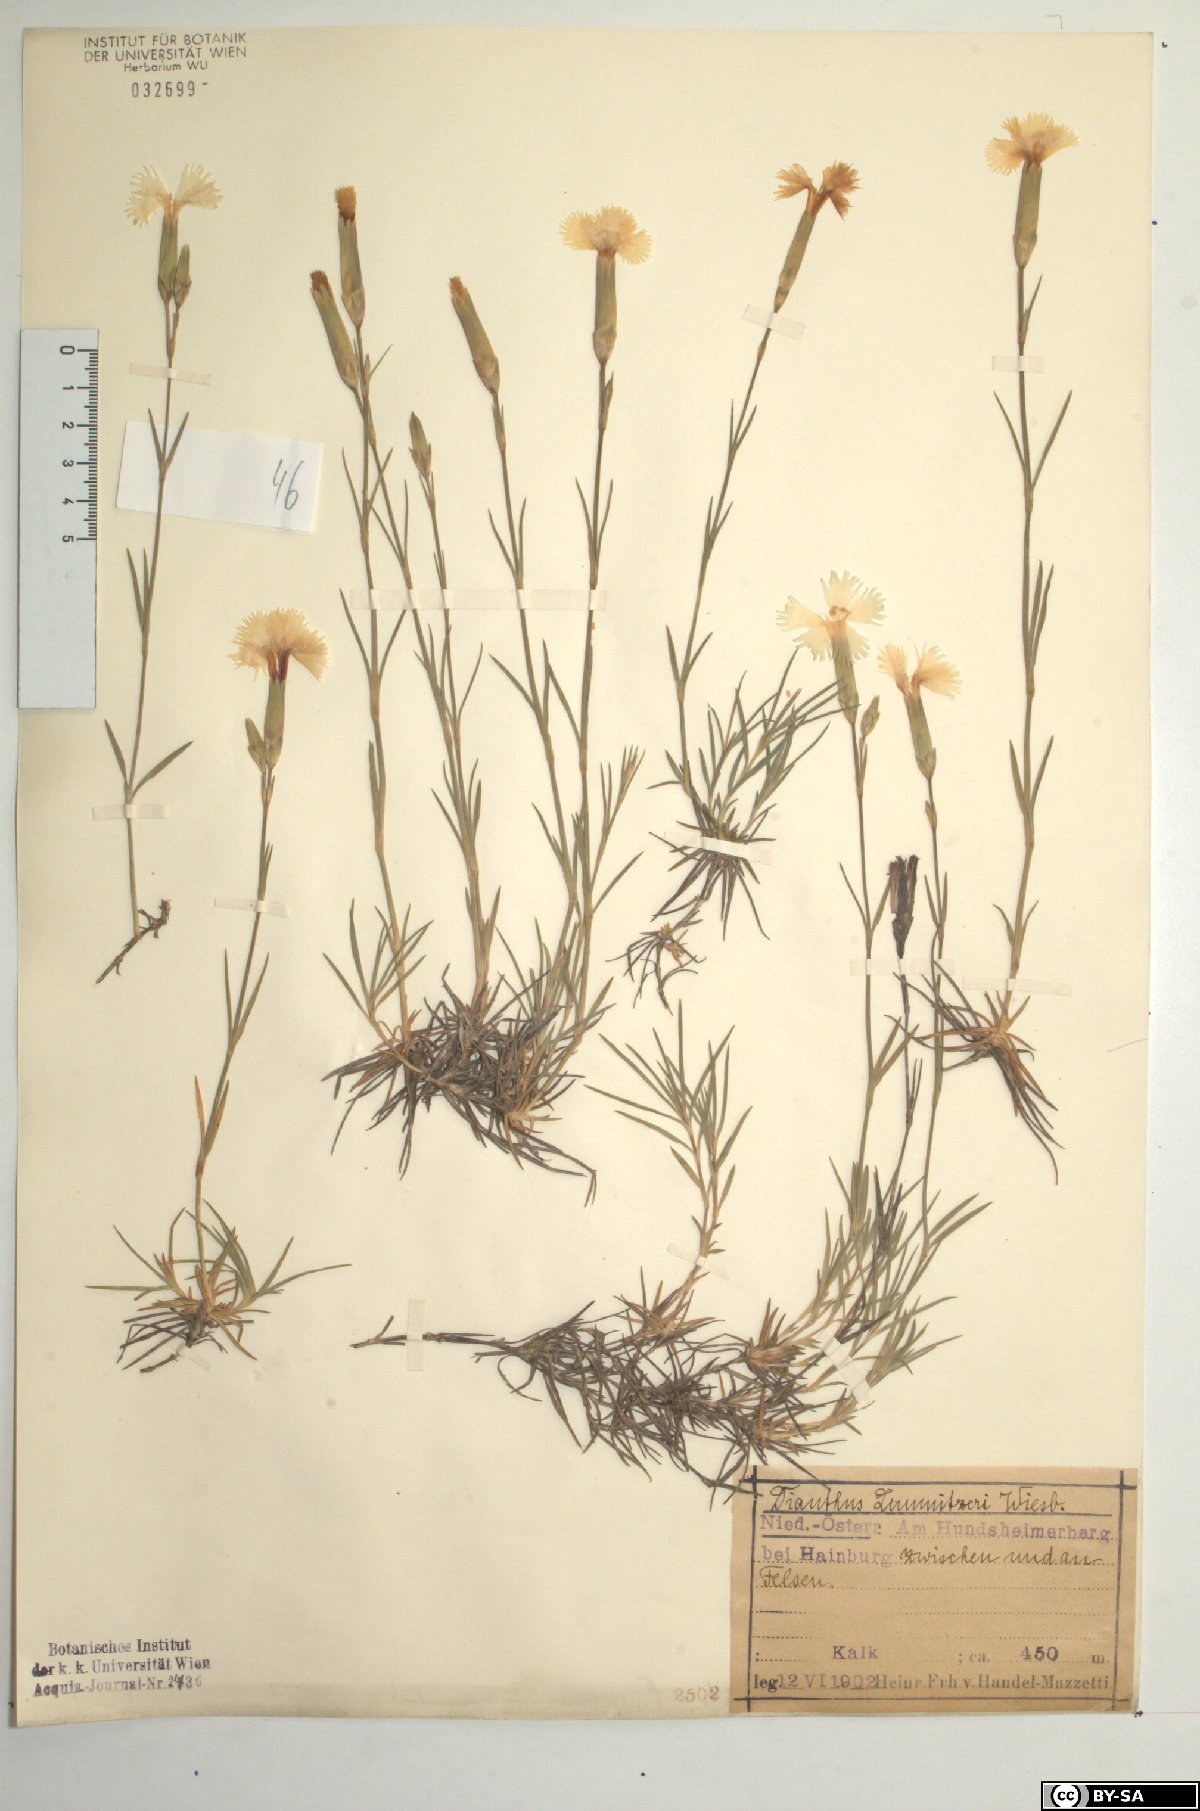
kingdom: Plantae
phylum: Tracheophyta
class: Magnoliopsida
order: Caryophyllales
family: Caryophyllaceae
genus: Dianthus
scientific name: Dianthus praecox
